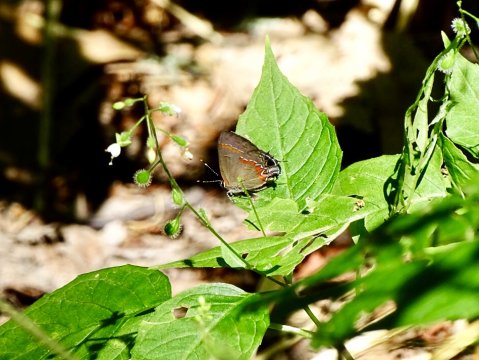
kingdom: Animalia
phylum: Arthropoda
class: Insecta
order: Lepidoptera
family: Lycaenidae
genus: Calycopis
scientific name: Calycopis cecrops
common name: Red-banded Hairstreak
